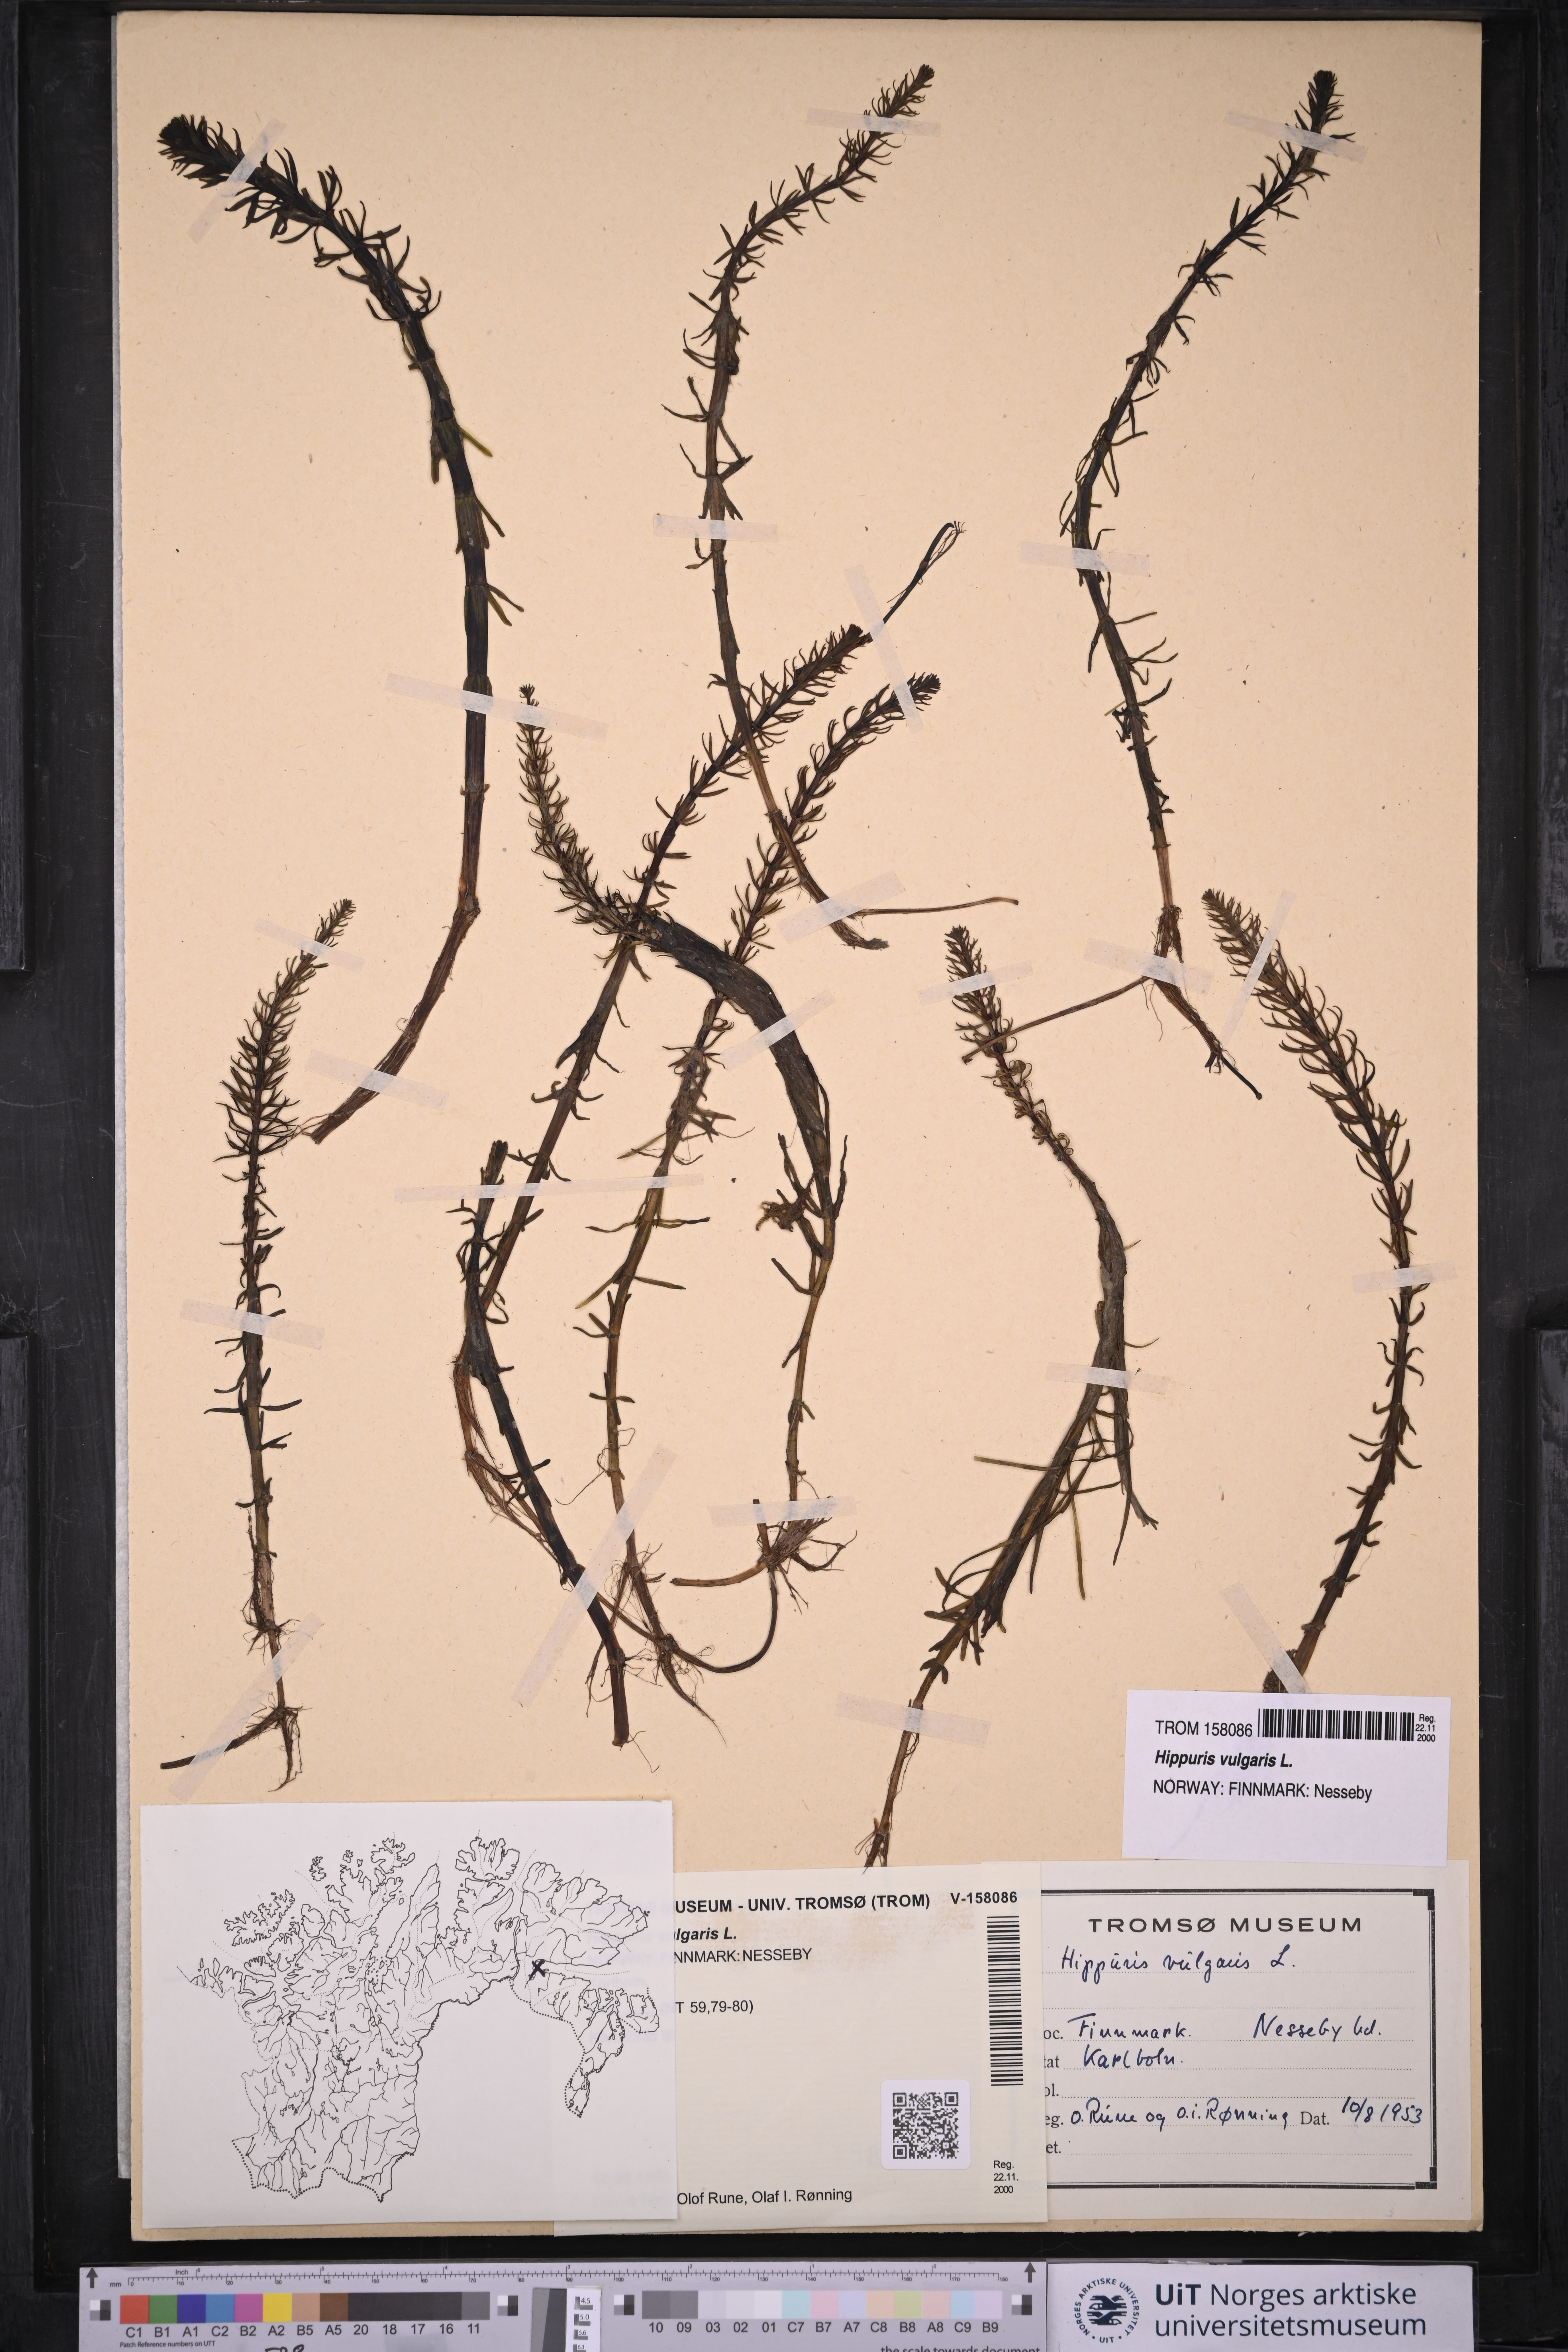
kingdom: Plantae
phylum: Tracheophyta
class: Magnoliopsida
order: Lamiales
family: Plantaginaceae
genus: Hippuris
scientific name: Hippuris vulgaris
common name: Mare's-tail
